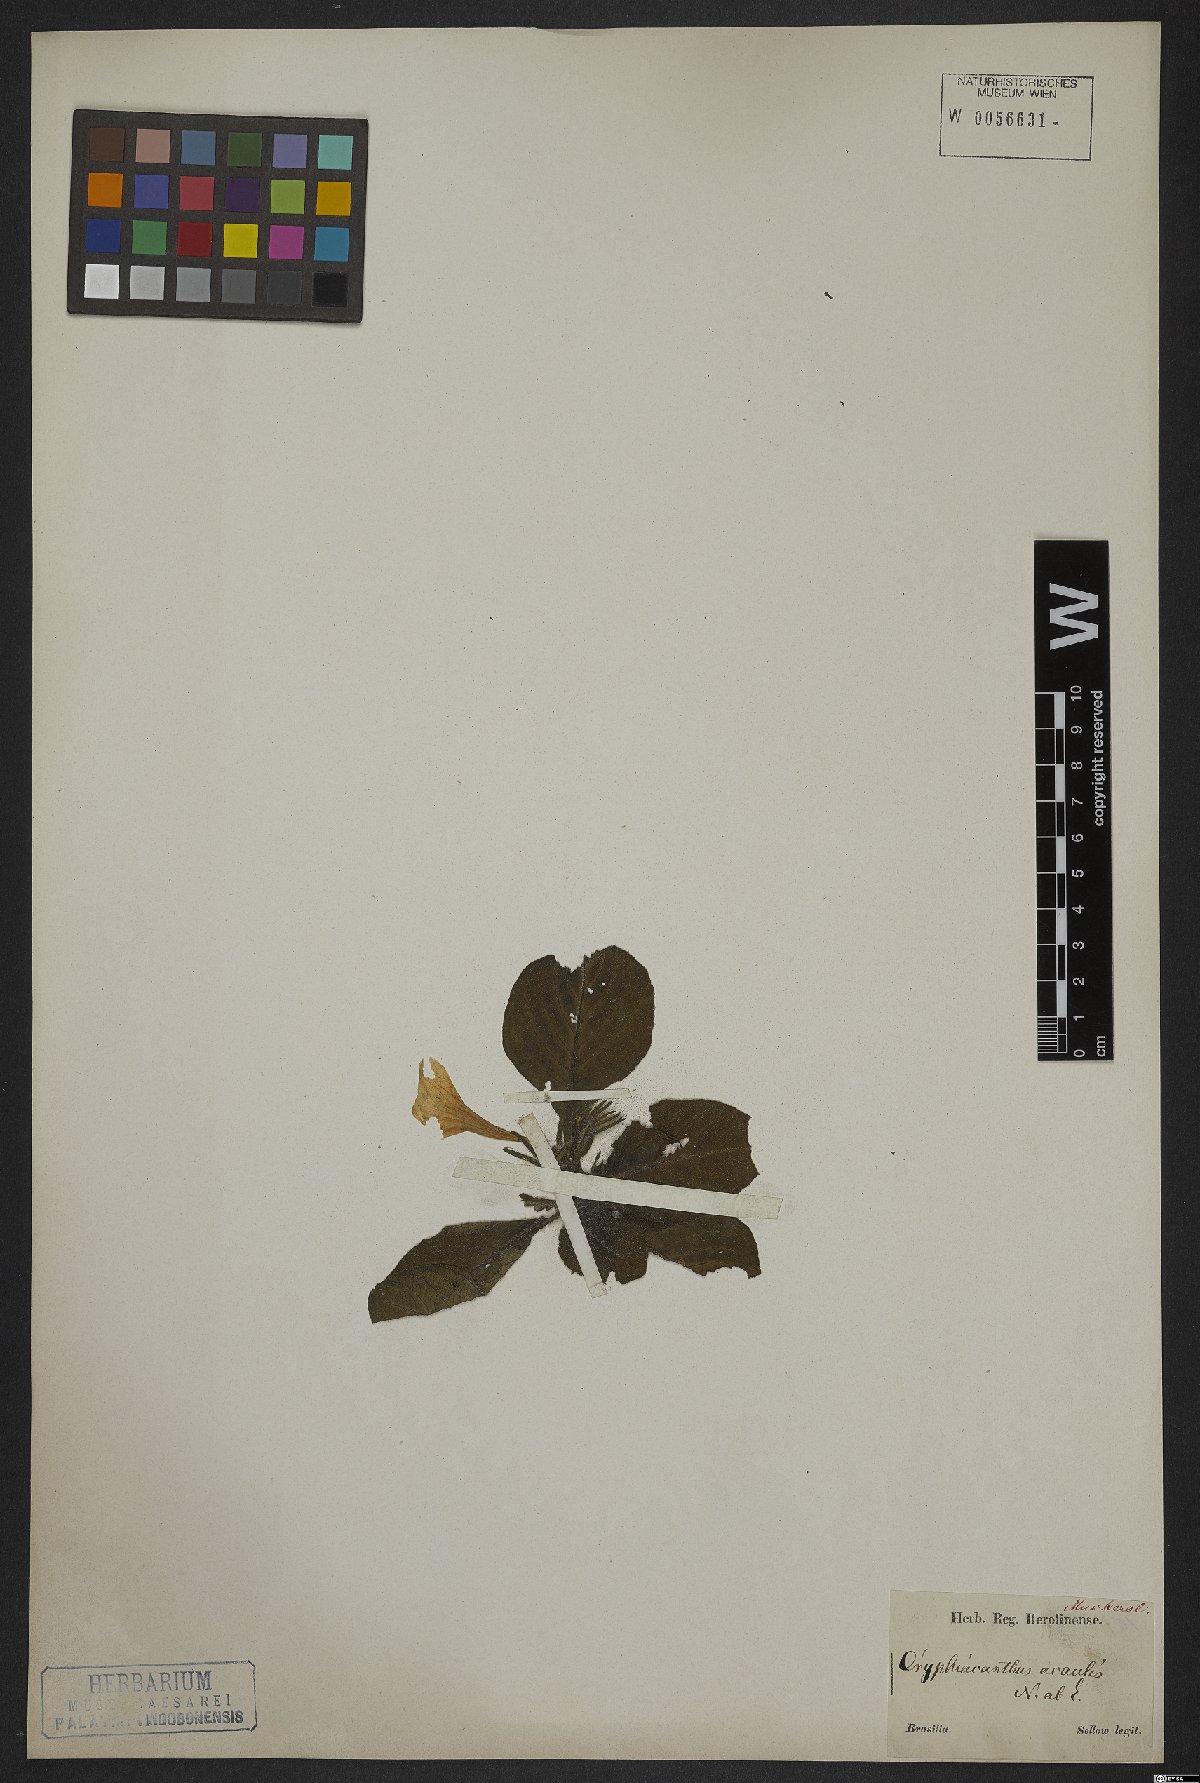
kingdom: Plantae
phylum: Tracheophyta
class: Magnoliopsida
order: Lamiales
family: Acanthaceae
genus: Ruellia
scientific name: Ruellia morongii
